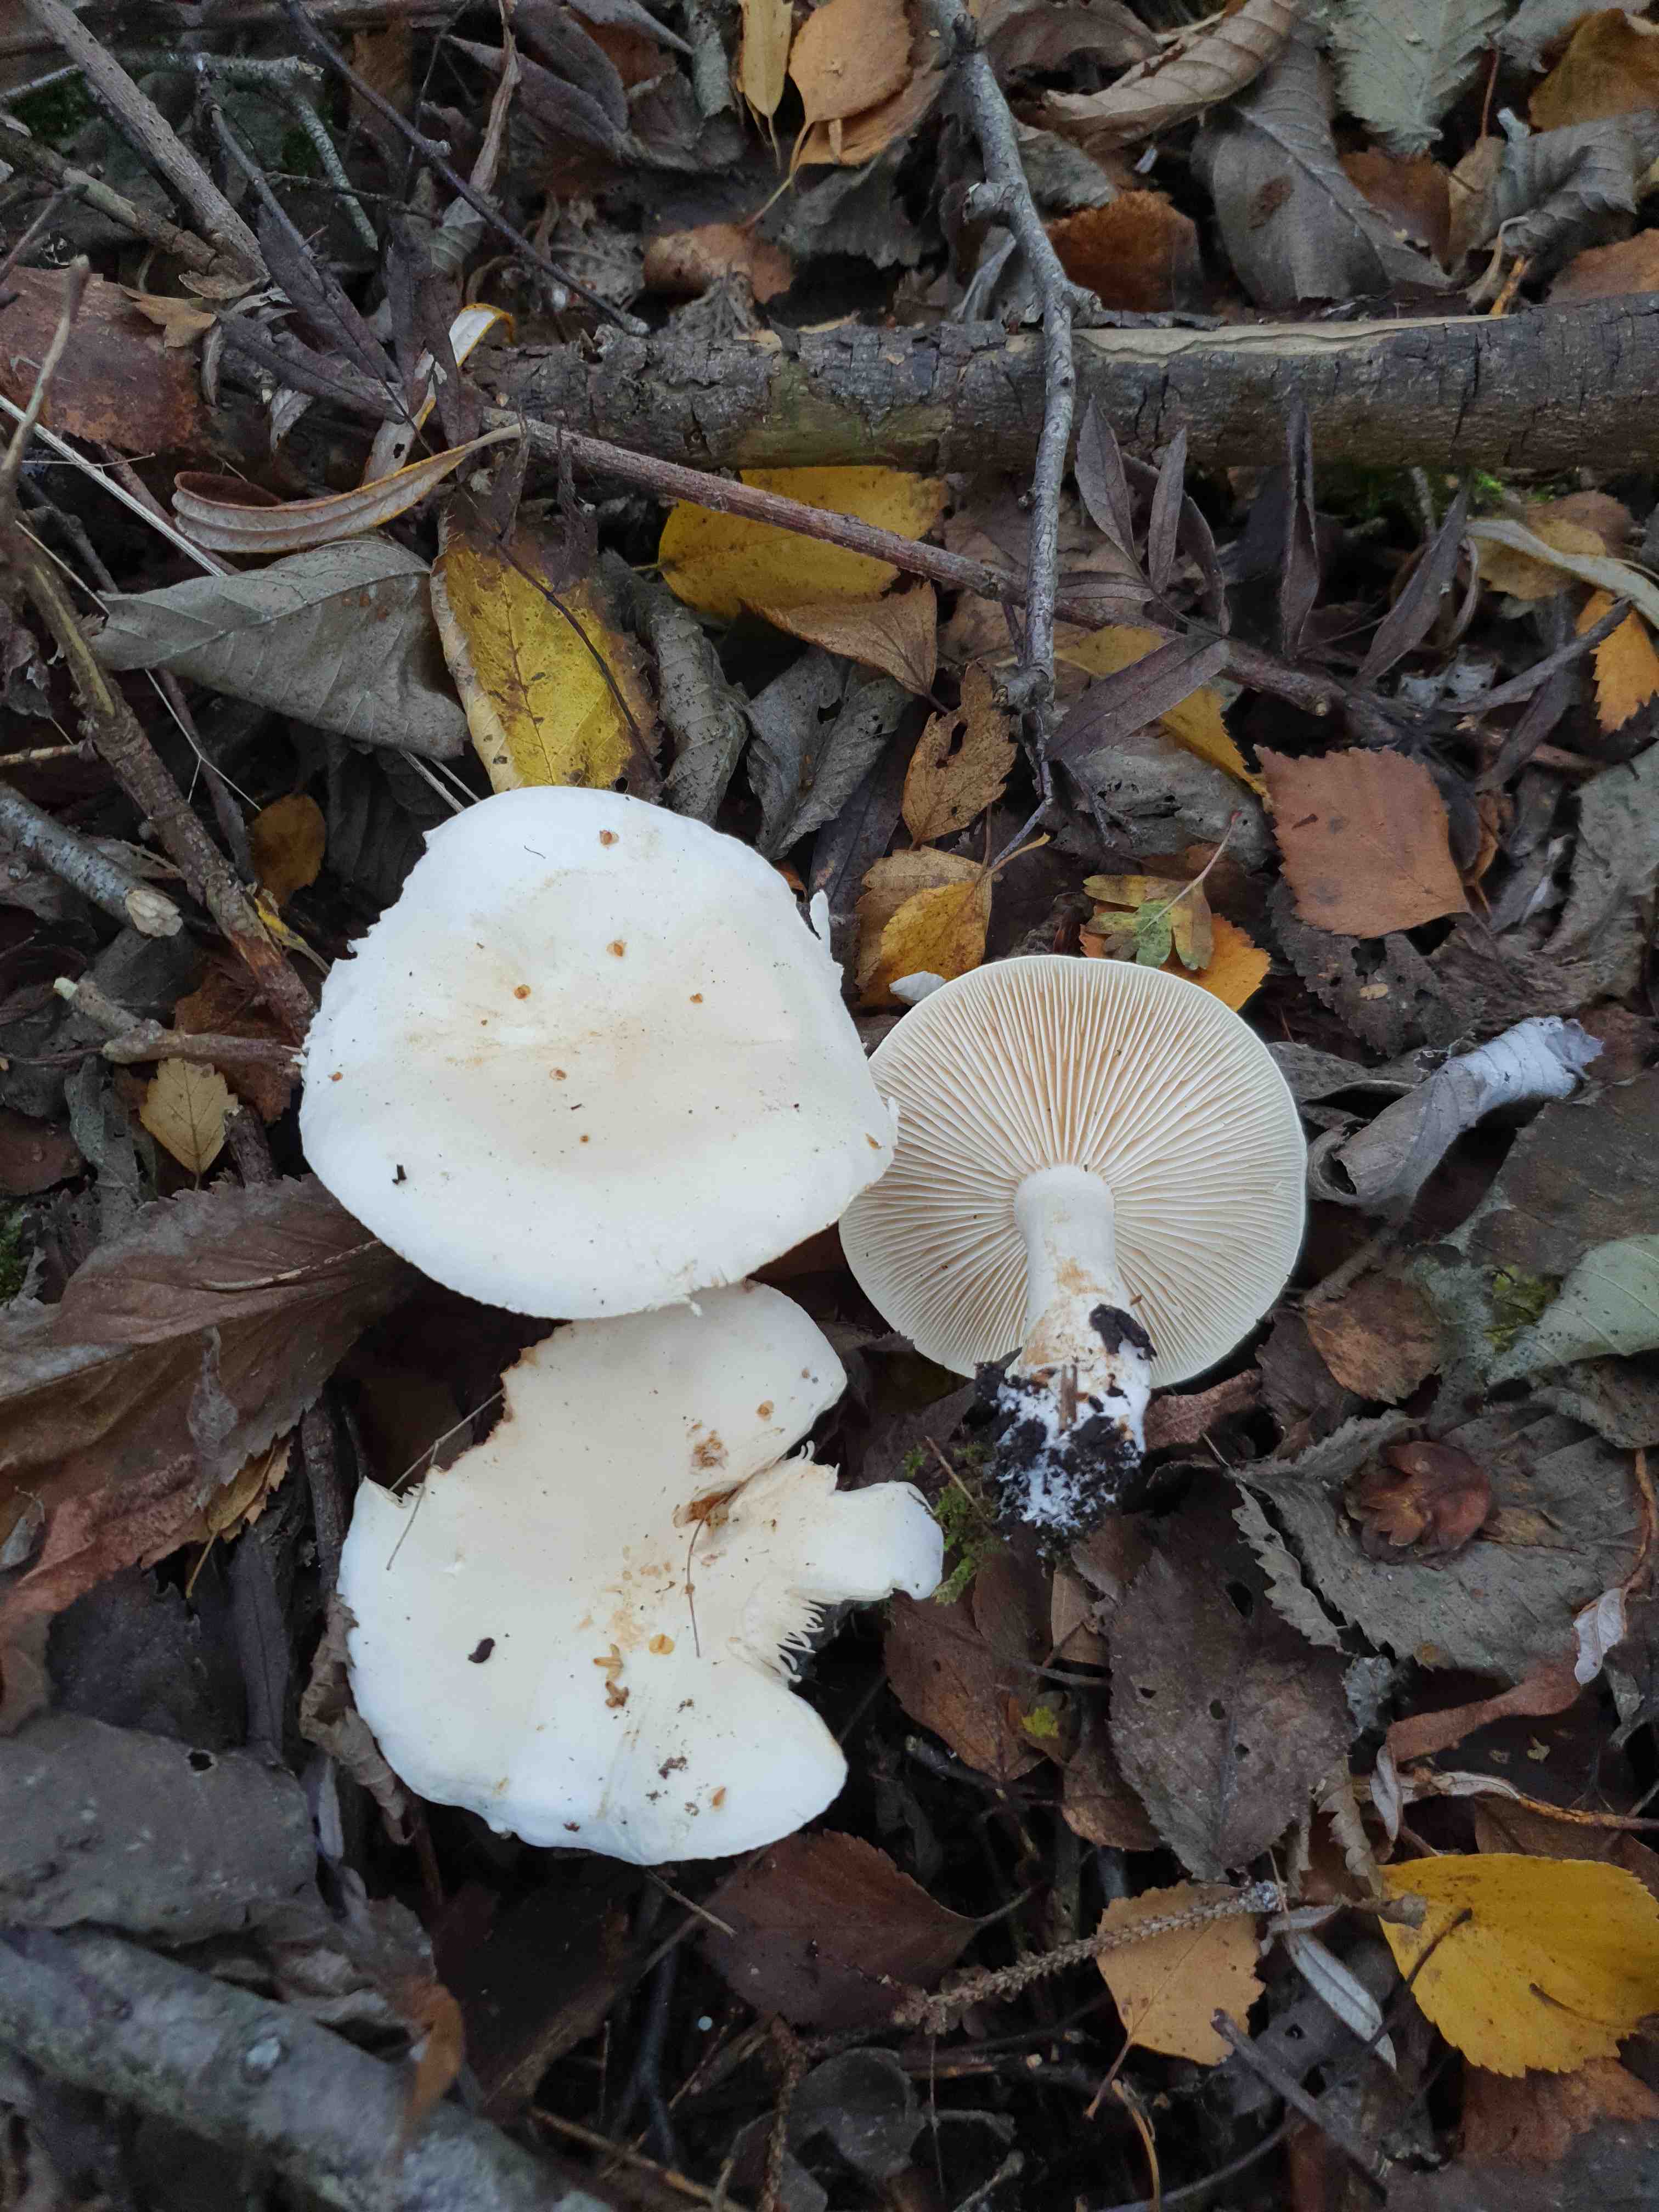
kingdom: Fungi
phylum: Basidiomycota
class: Agaricomycetes
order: Agaricales
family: Tricholomataceae
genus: Tricholoma
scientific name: Tricholoma stiparophyllum
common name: hvid ridderhat
